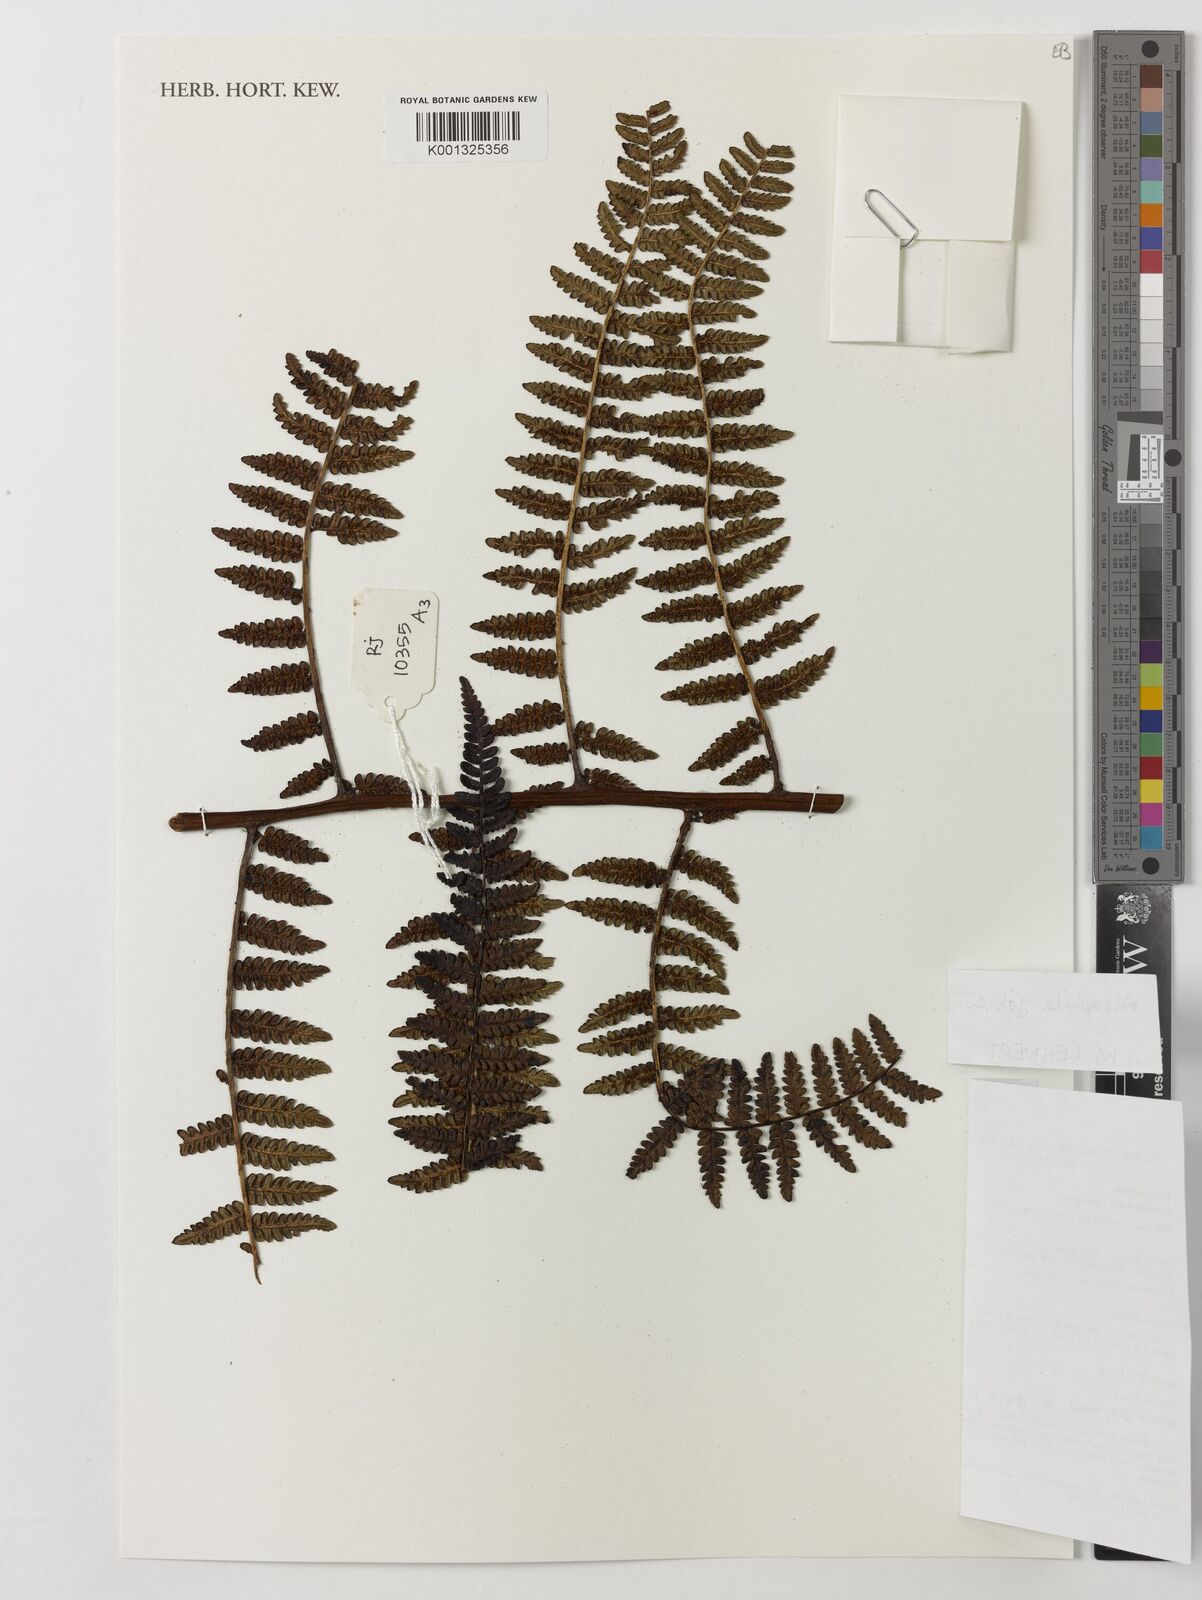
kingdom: Plantae
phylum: Tracheophyta
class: Polypodiopsida
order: Cyatheales
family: Cyatheaceae
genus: Alsophila
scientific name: Alsophila johnsii
